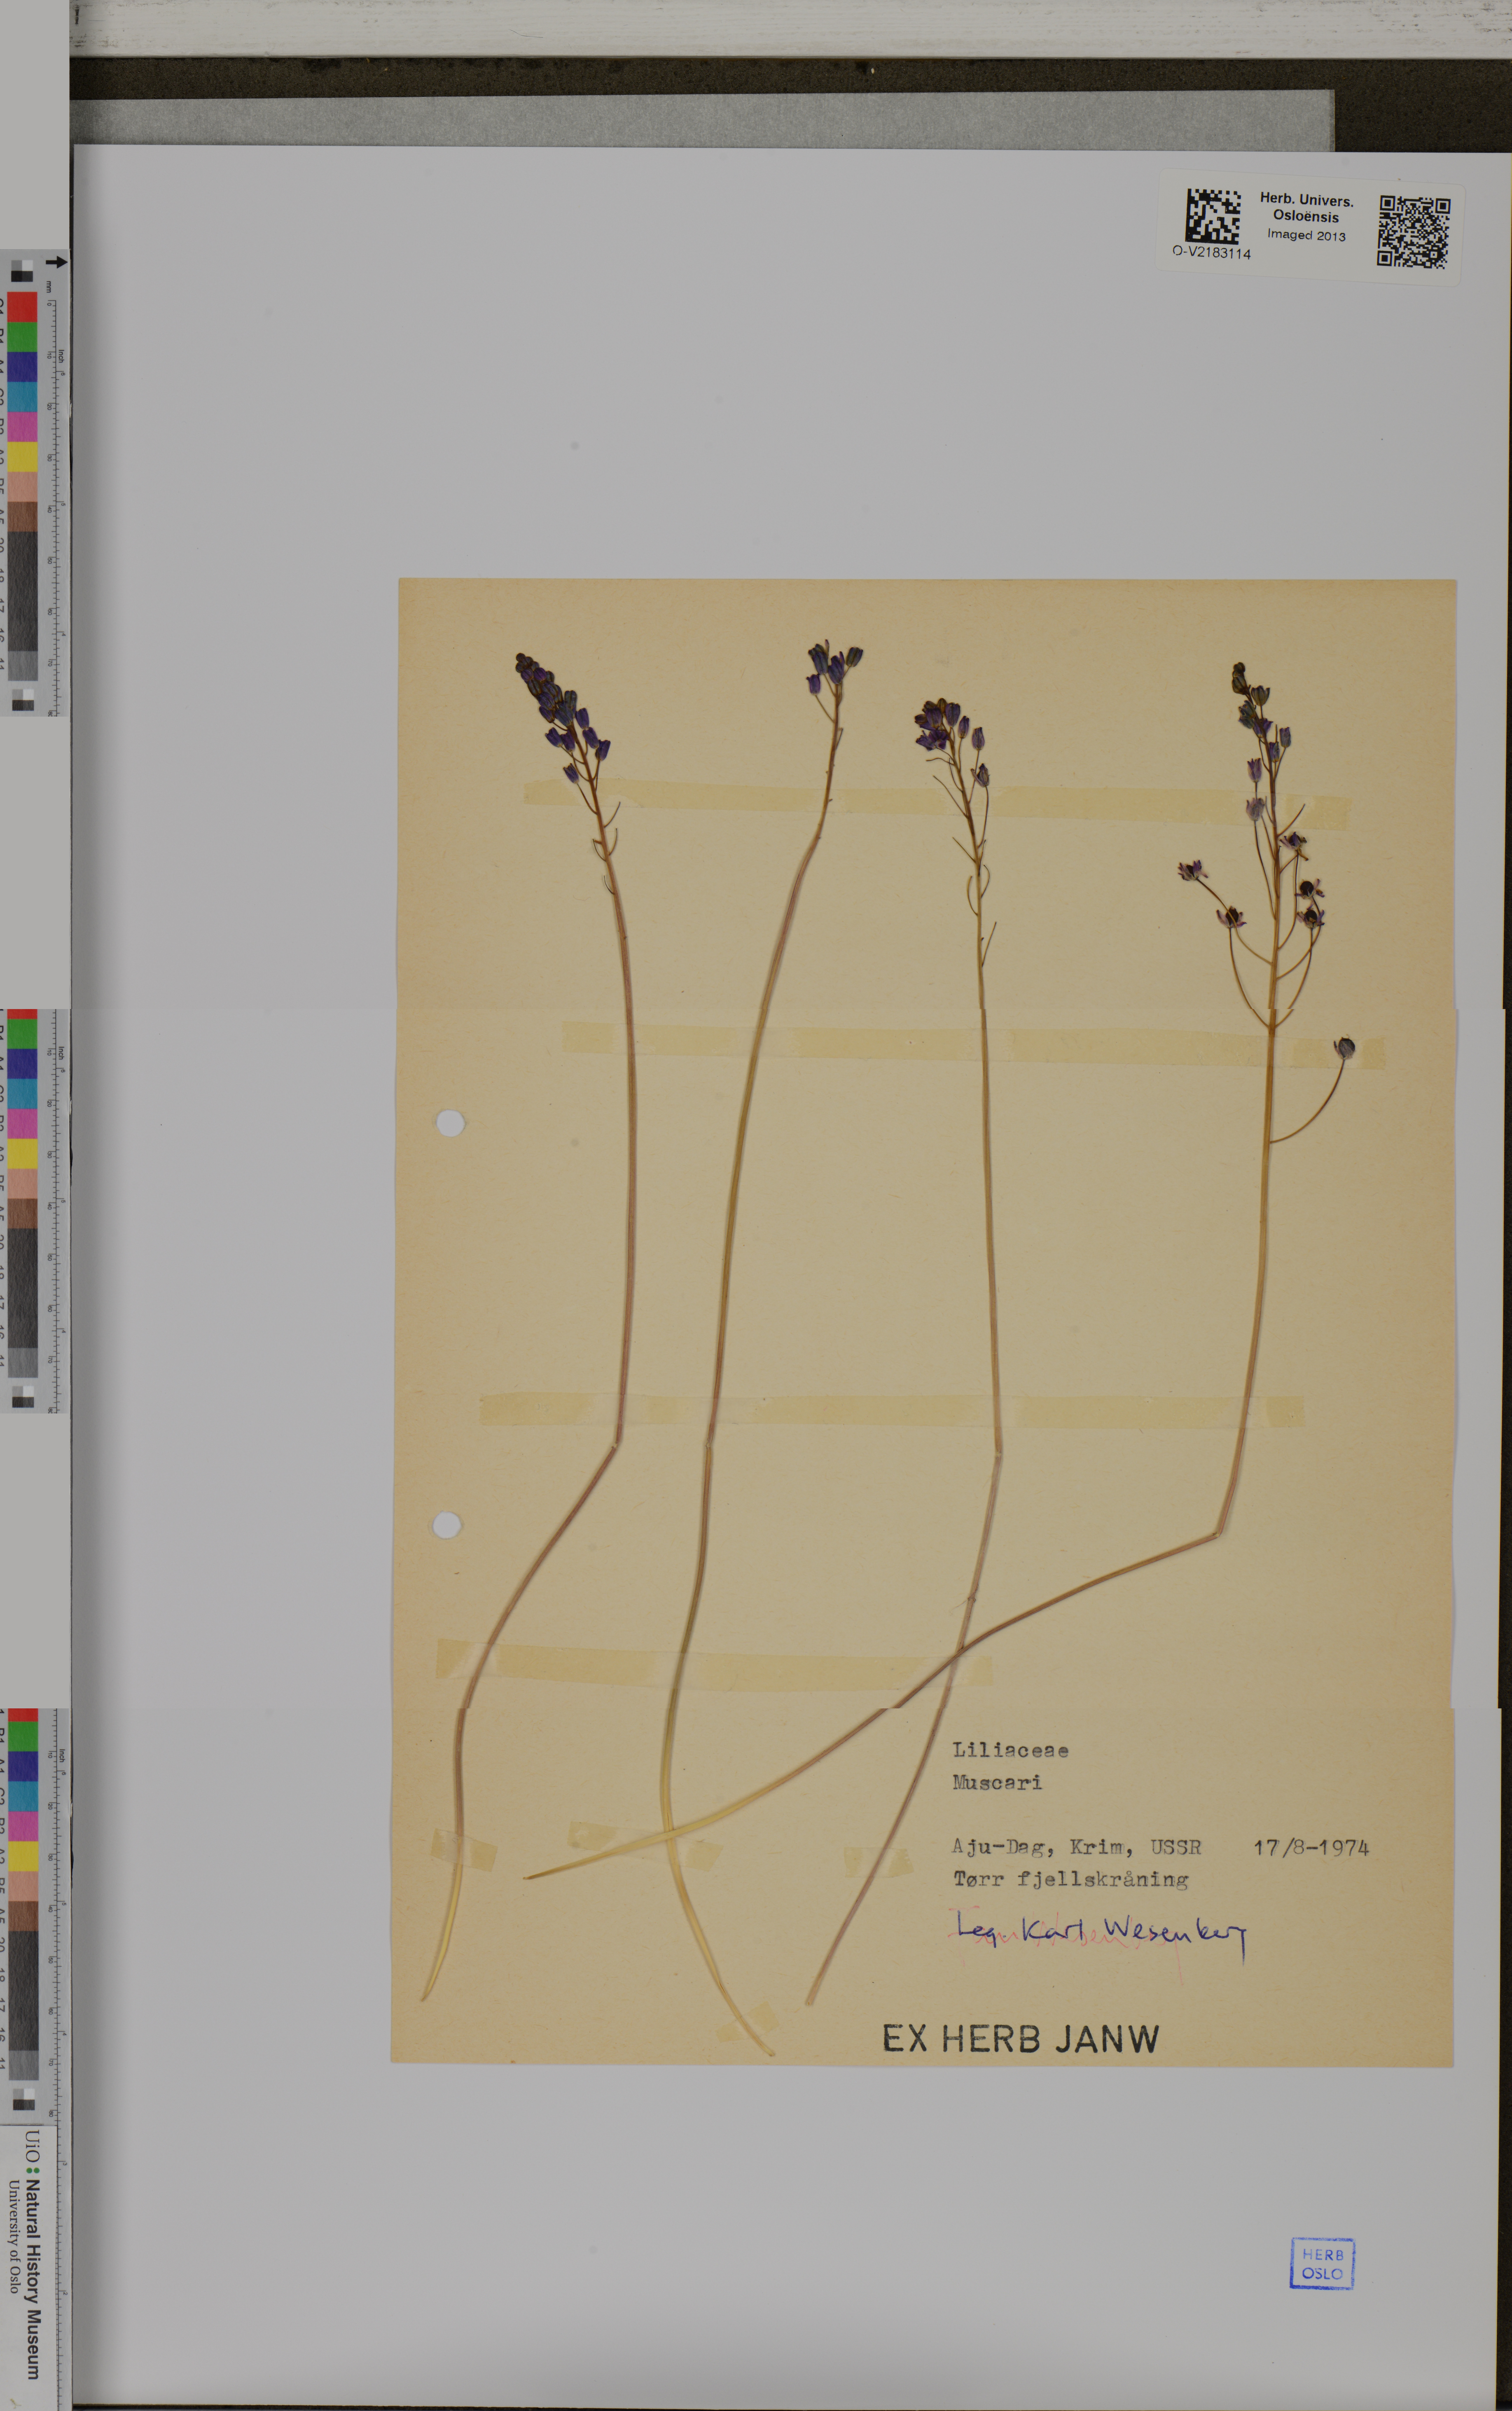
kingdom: Plantae
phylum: Tracheophyta
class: Liliopsida
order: Asparagales
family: Asparagaceae
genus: Muscari
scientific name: Muscari
